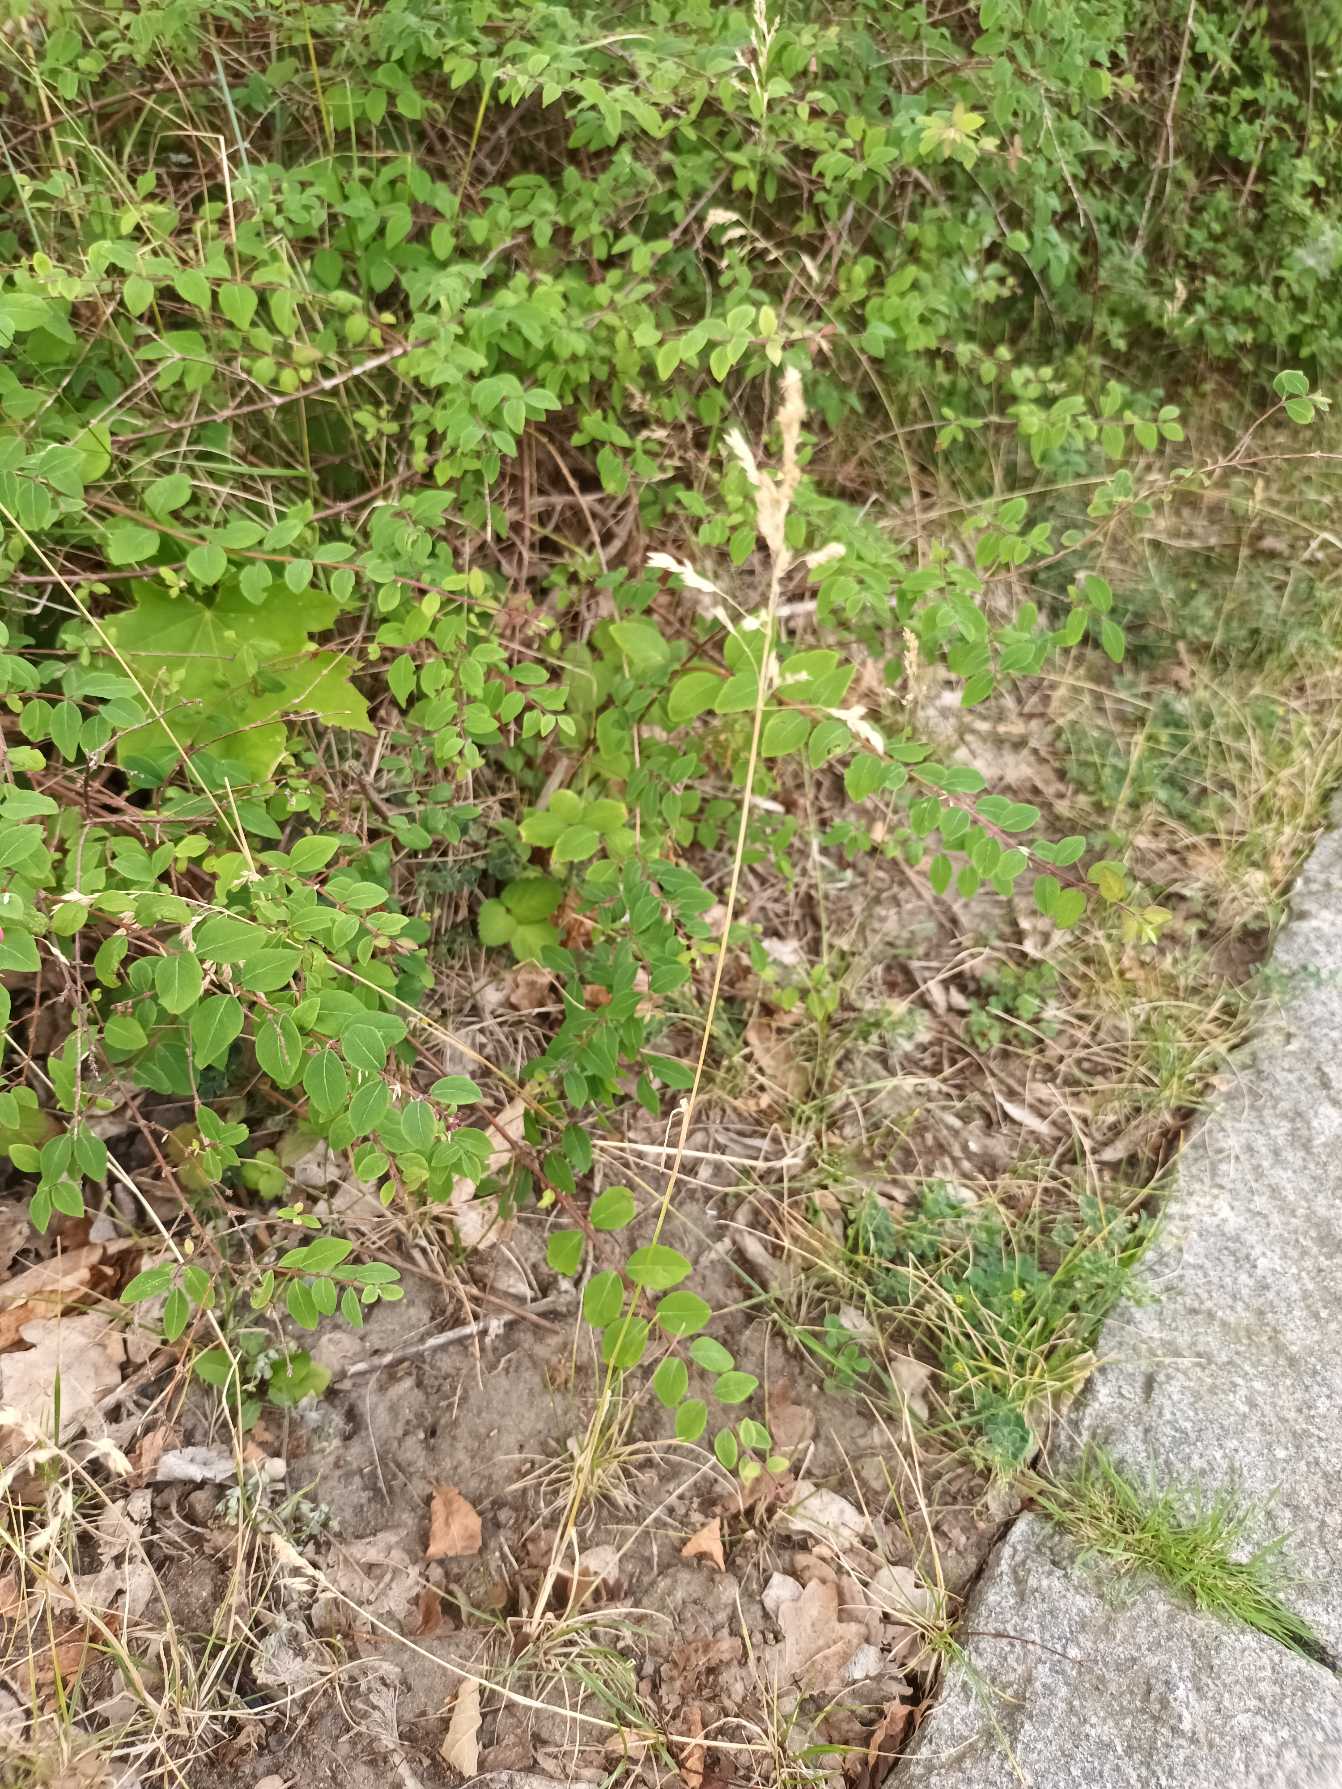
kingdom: Plantae
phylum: Tracheophyta
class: Liliopsida
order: Poales
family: Poaceae
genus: Poa
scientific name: Poa pratensis
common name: Eng-rapgræs
